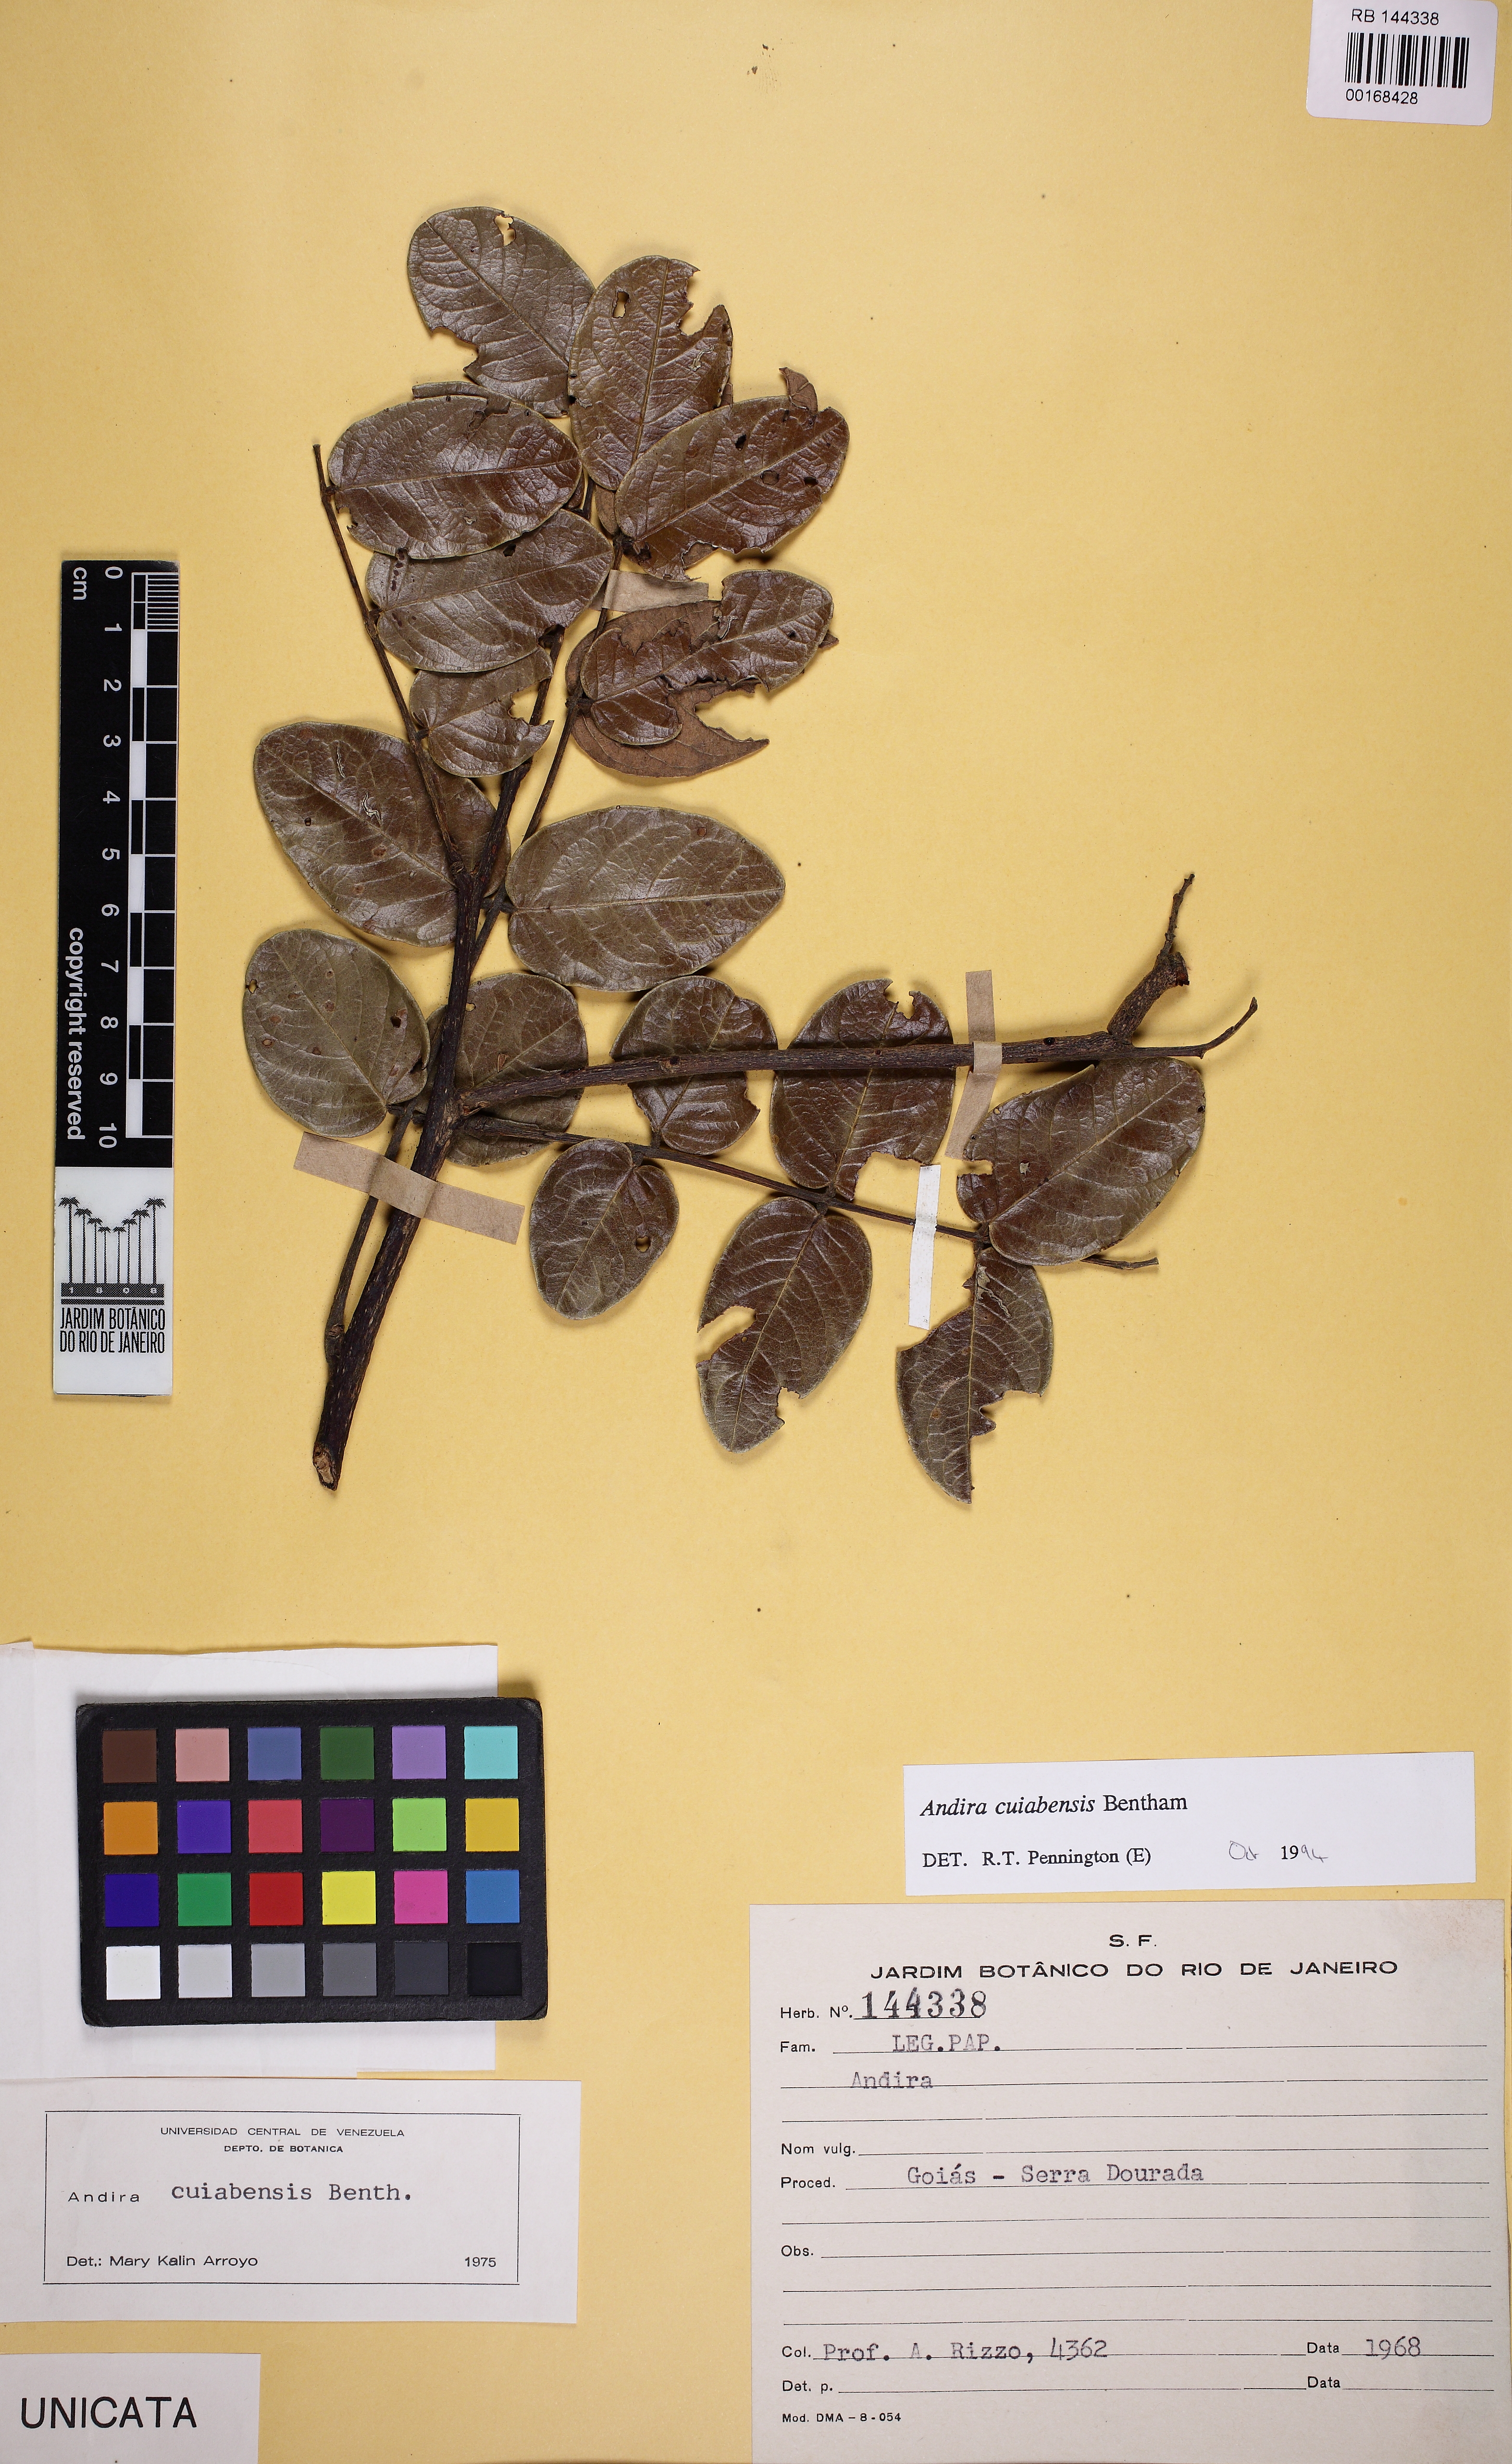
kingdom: Plantae
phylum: Tracheophyta
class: Magnoliopsida
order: Fabales
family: Fabaceae
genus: Andira
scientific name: Andira cujabensis
